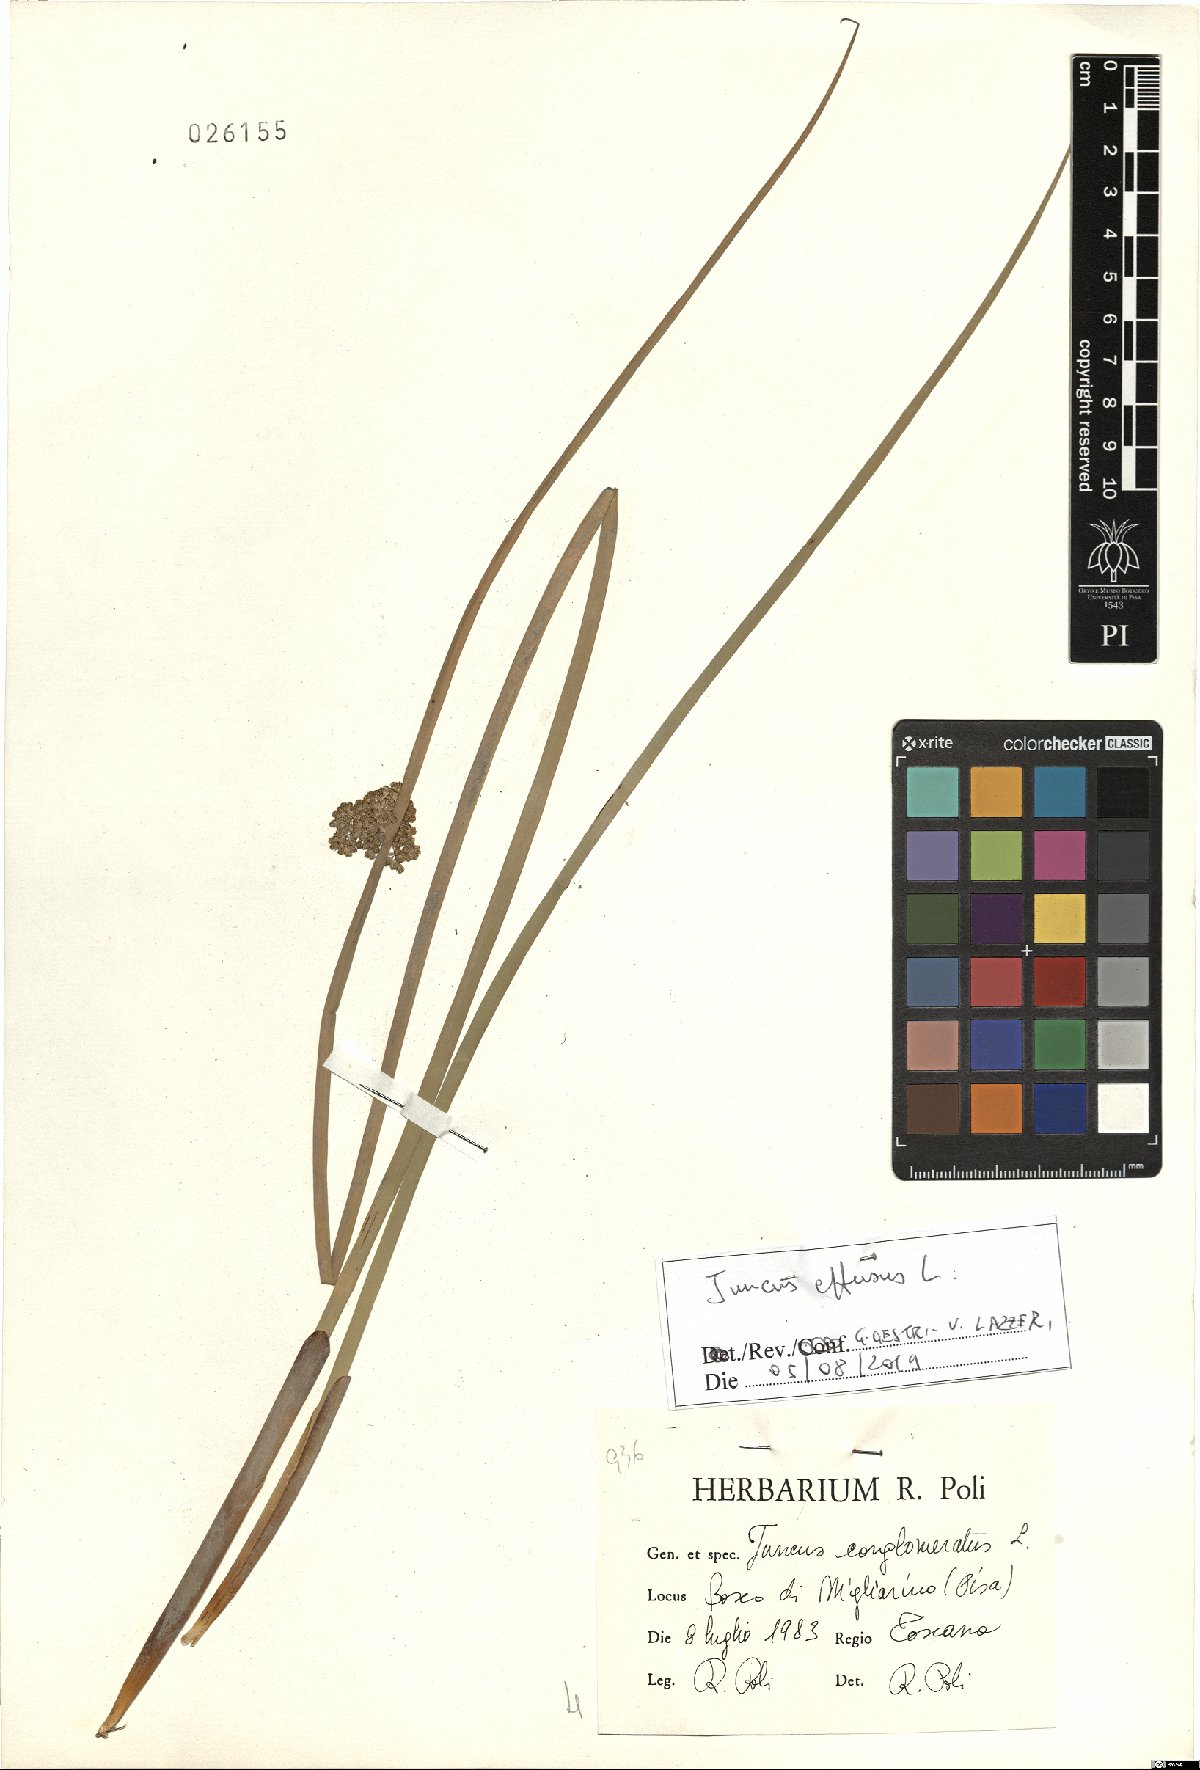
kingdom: Plantae
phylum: Tracheophyta
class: Liliopsida
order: Poales
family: Juncaceae
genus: Juncus
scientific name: Juncus effusus
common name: Soft rush
